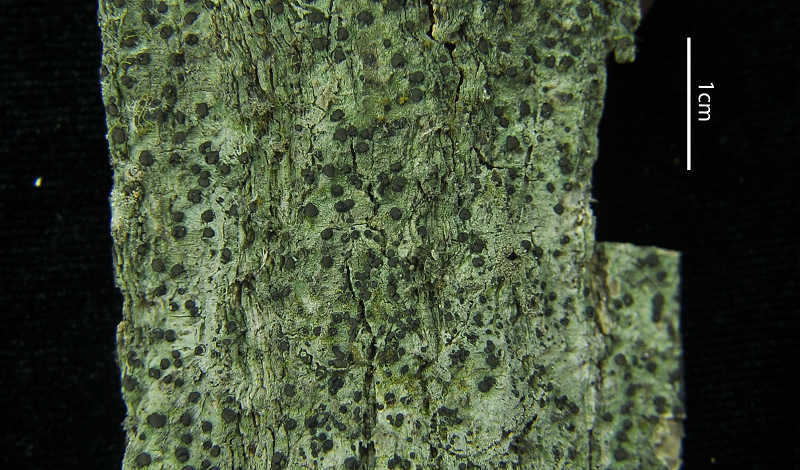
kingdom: Fungi
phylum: Ascomycota
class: Lecanoromycetes
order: Ostropales
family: Graphidaceae
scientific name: Graphidaceae
